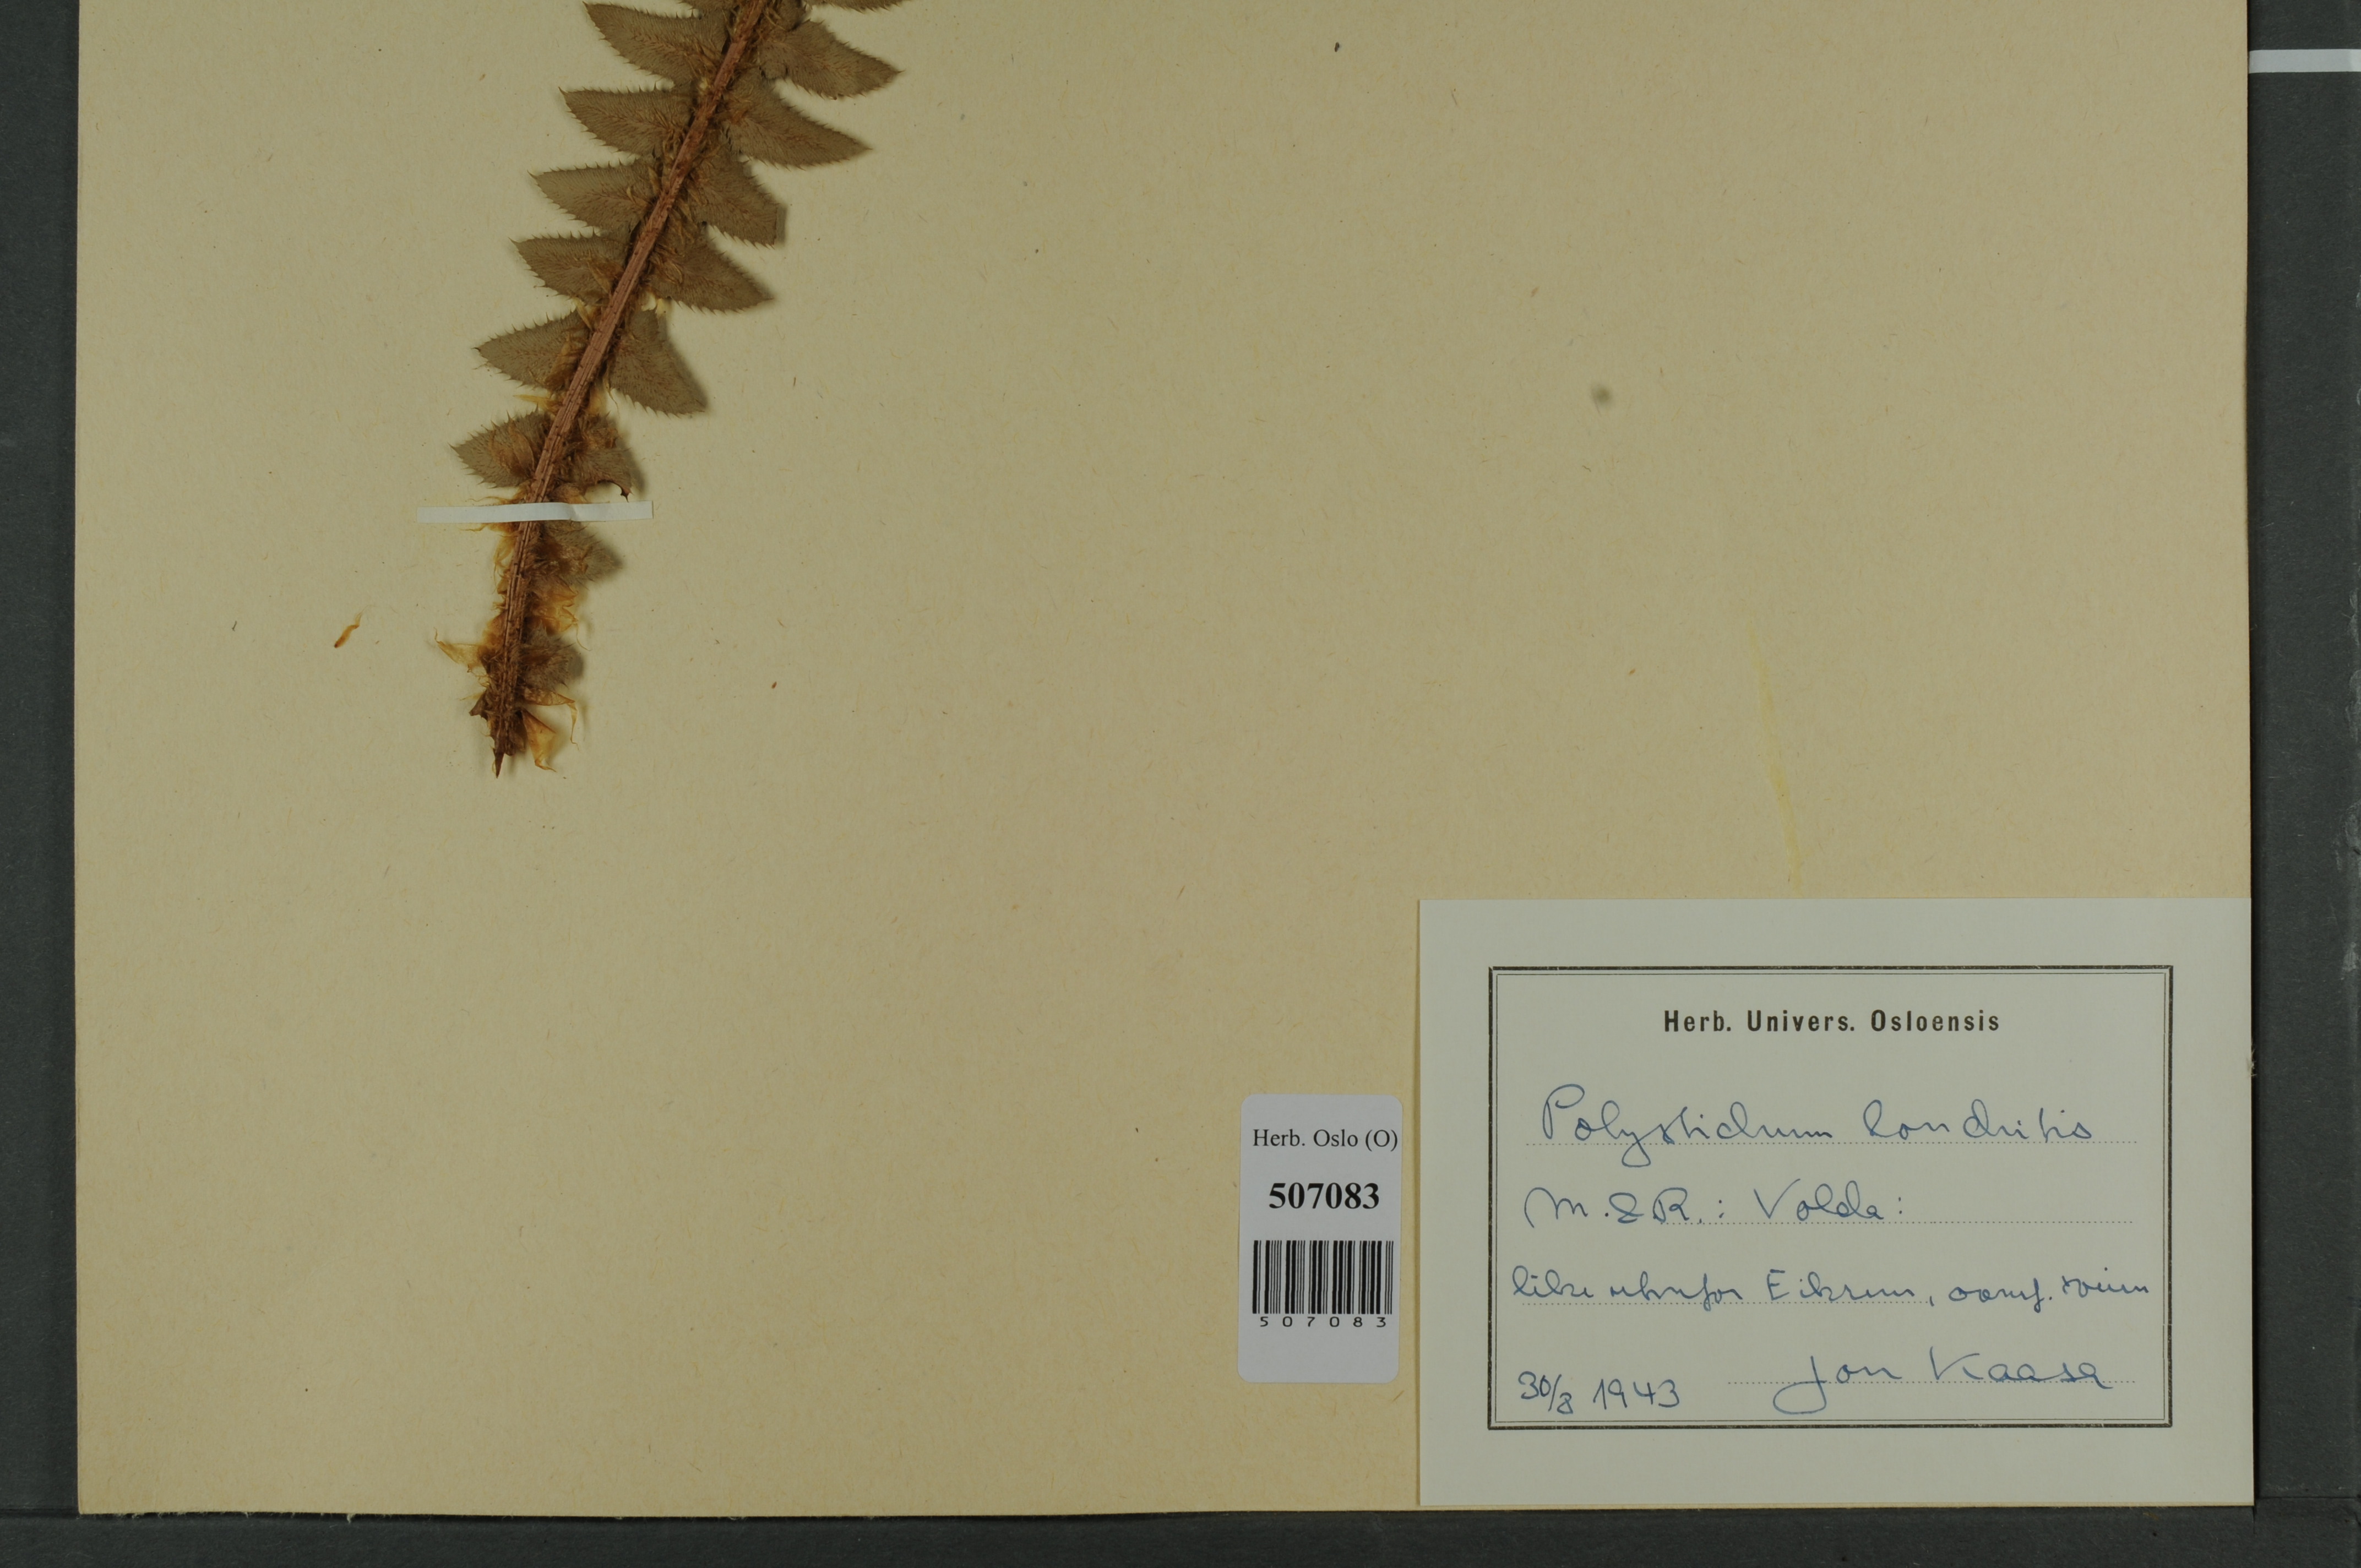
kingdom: Plantae
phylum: Tracheophyta
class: Polypodiopsida
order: Polypodiales
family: Dryopteridaceae
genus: Polystichum
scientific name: Polystichum lonchitis
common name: Holly fern
